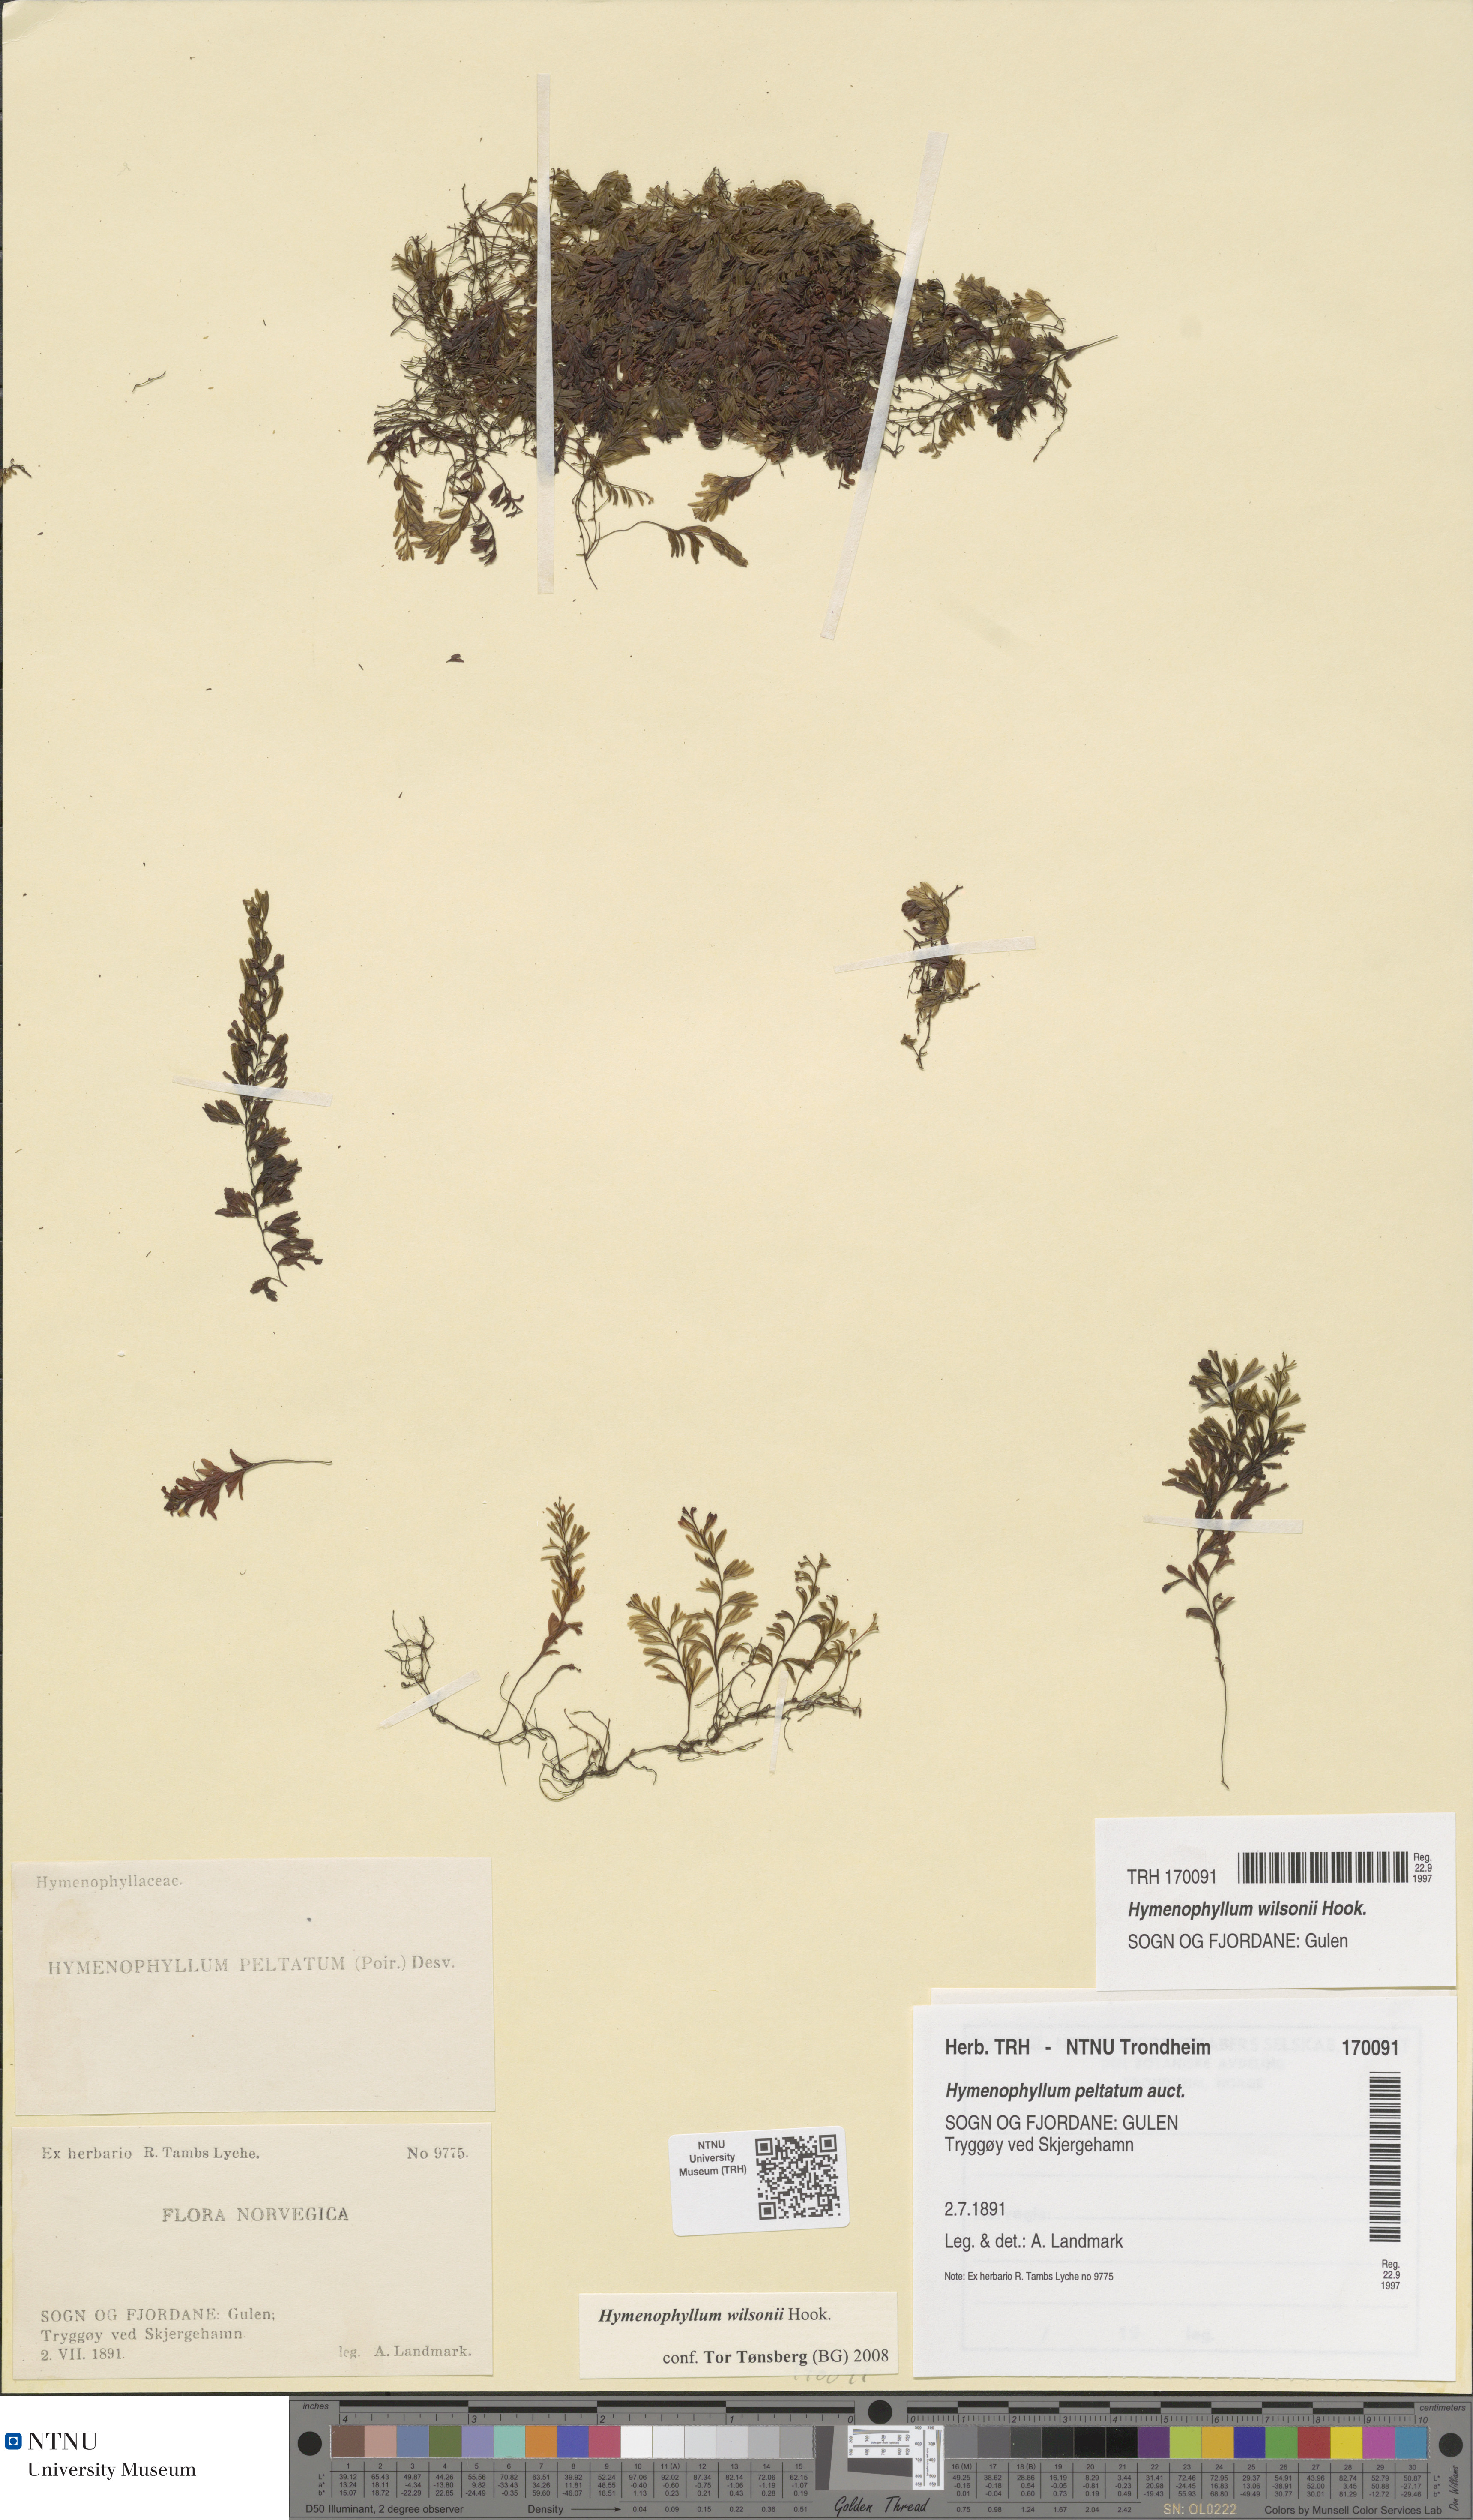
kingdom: Plantae
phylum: Tracheophyta
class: Polypodiopsida
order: Hymenophyllales
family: Hymenophyllaceae
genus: Hymenophyllum
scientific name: Hymenophyllum peltatum
